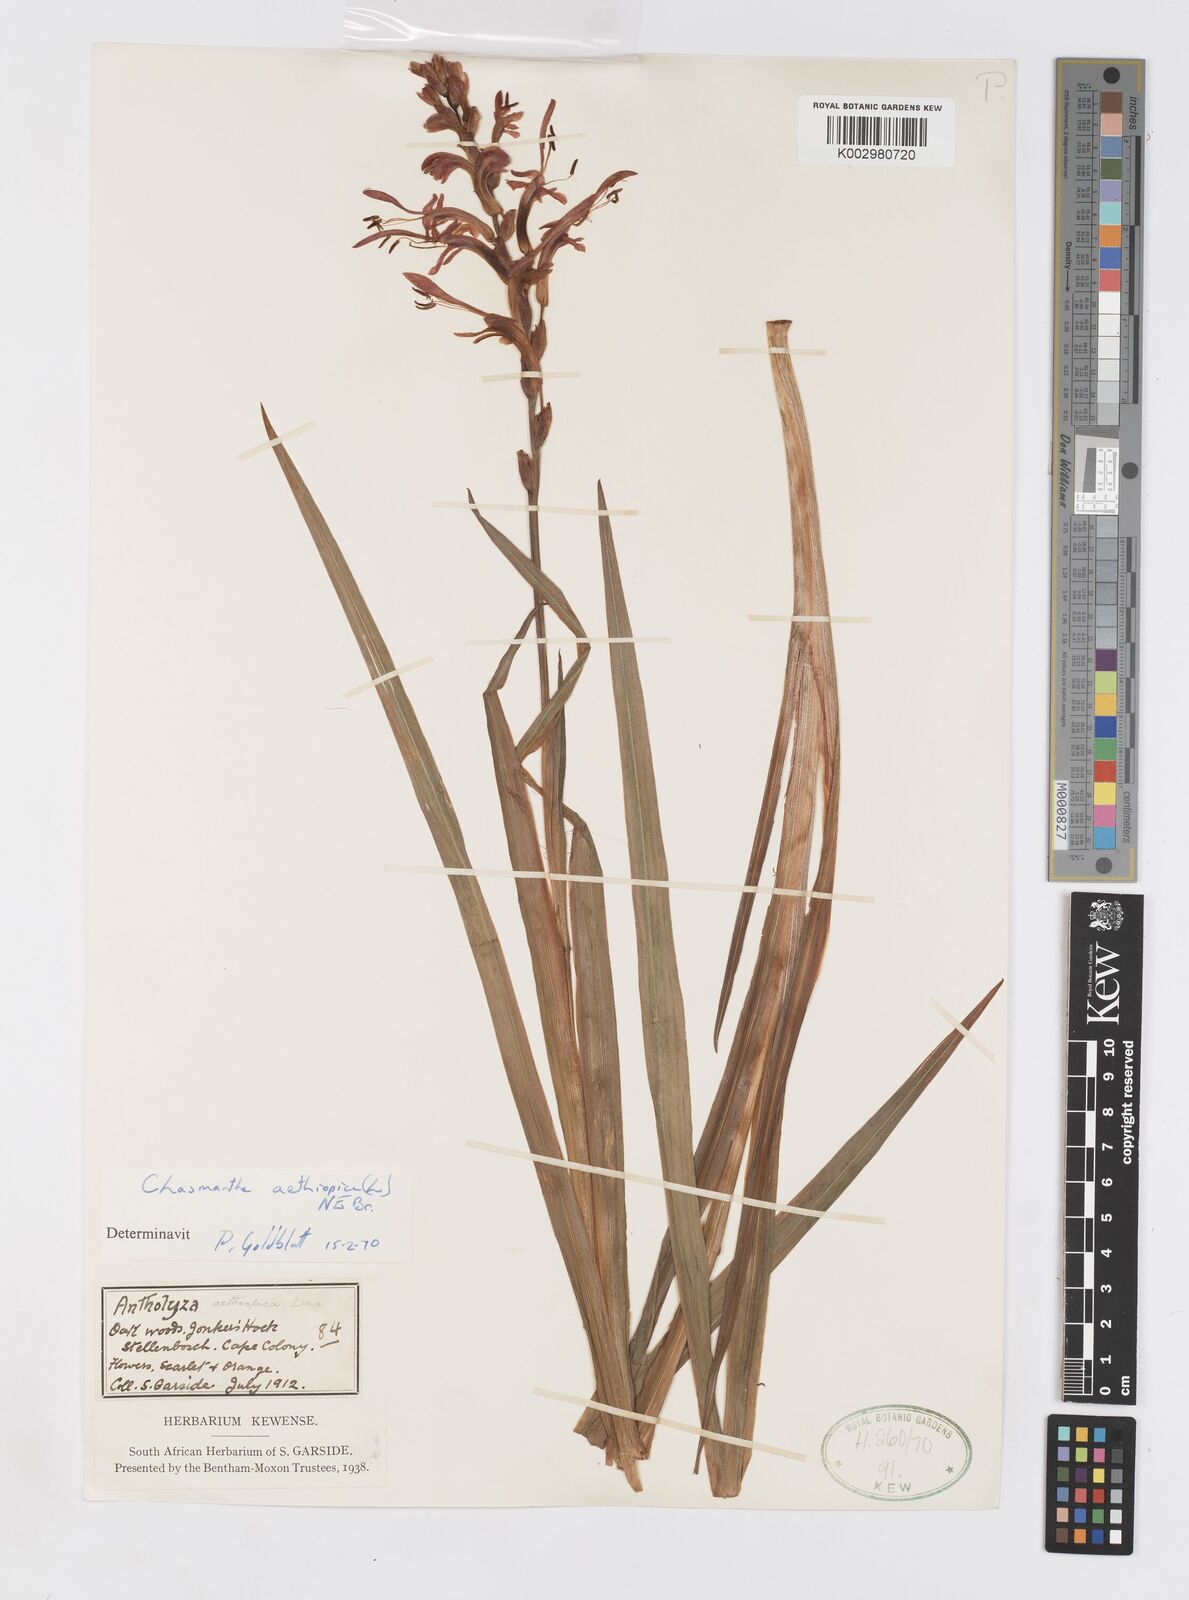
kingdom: Plantae
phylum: Tracheophyta
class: Liliopsida
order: Asparagales
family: Iridaceae
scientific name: Iridaceae
